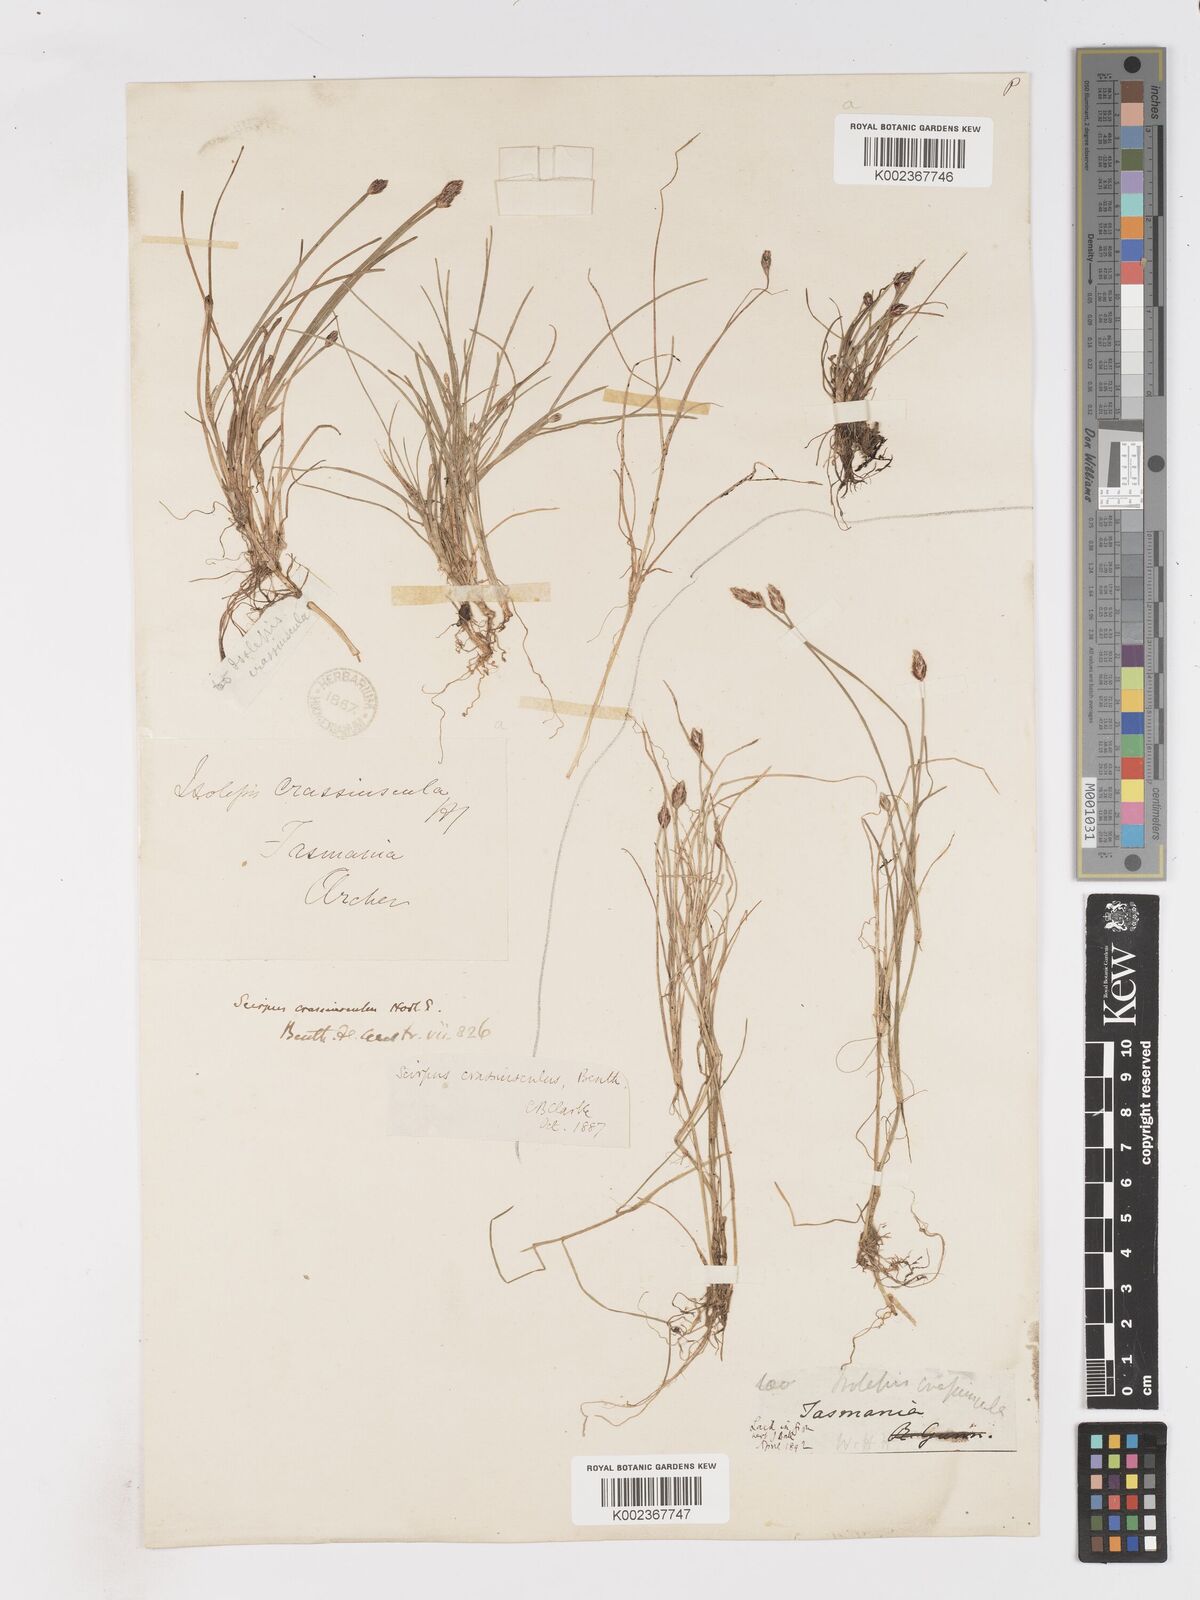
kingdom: Plantae
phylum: Tracheophyta
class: Liliopsida
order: Poales
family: Cyperaceae
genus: Isolepis
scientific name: Isolepis crassiuscula
